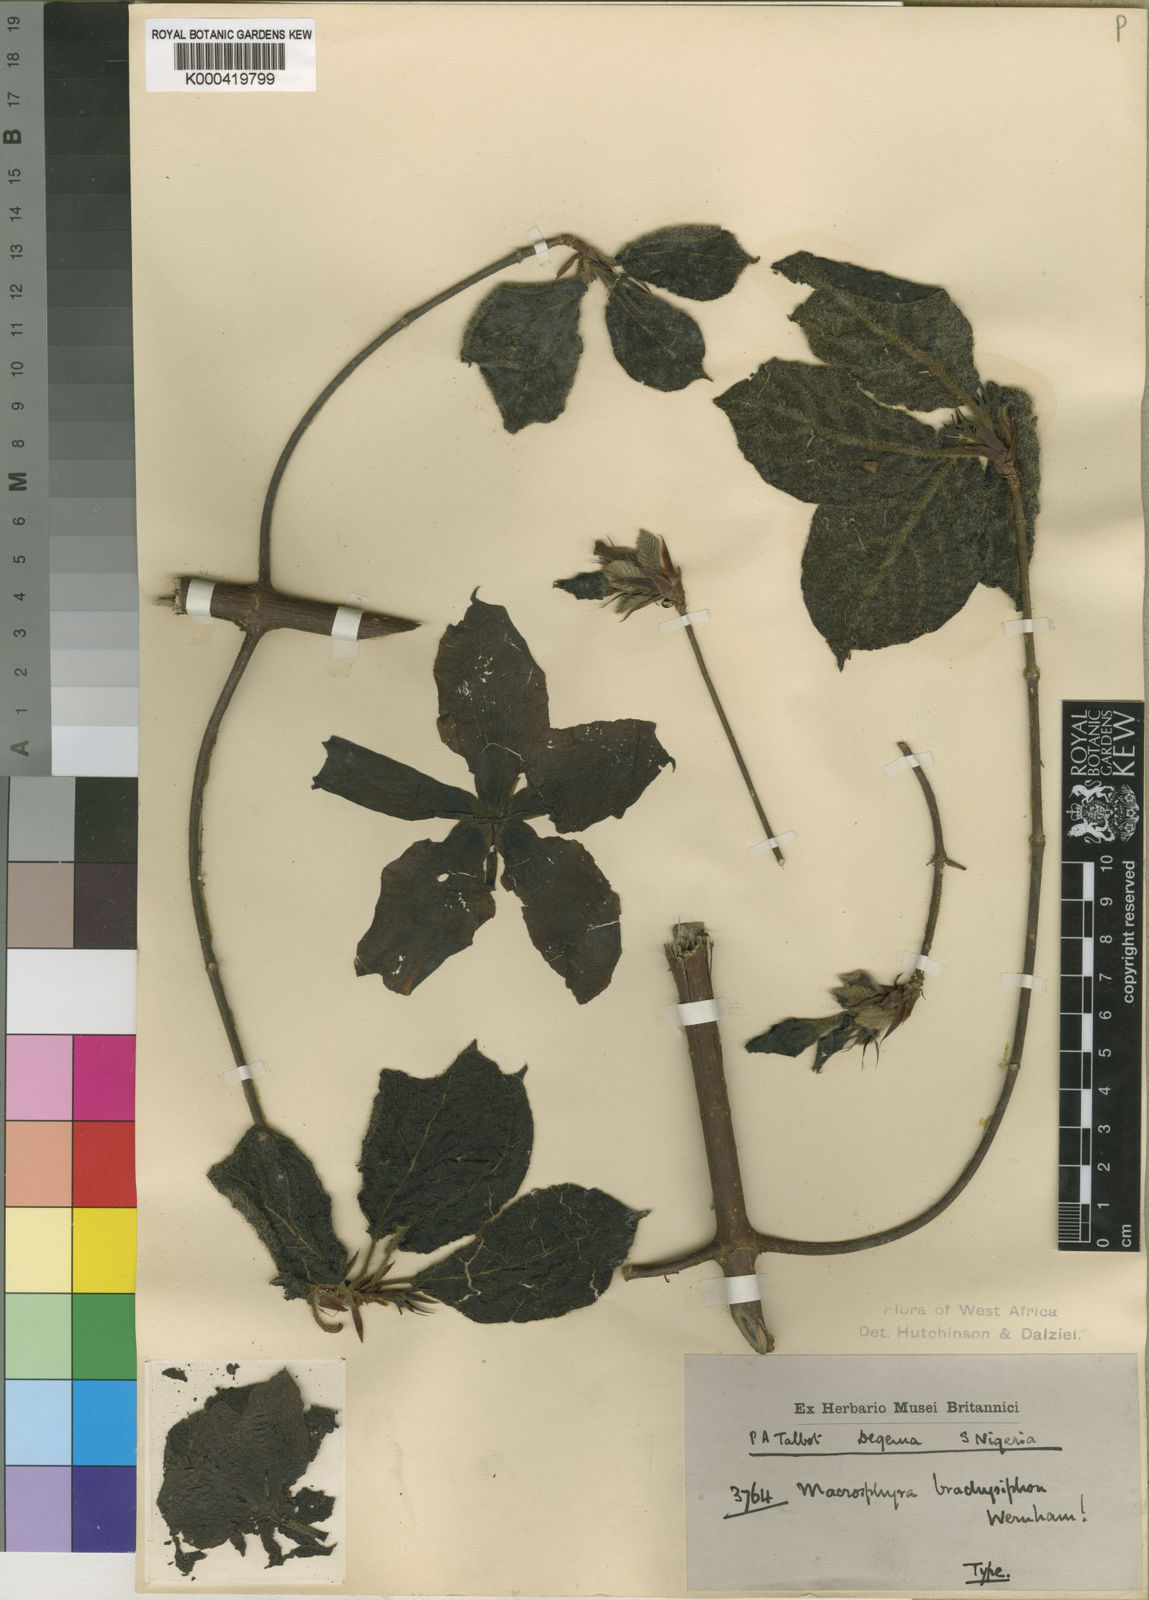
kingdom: Plantae
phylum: Tracheophyta
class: Magnoliopsida
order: Gentianales
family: Rubiaceae
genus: Macrosphyra
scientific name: Macrosphyra brachysiphon
